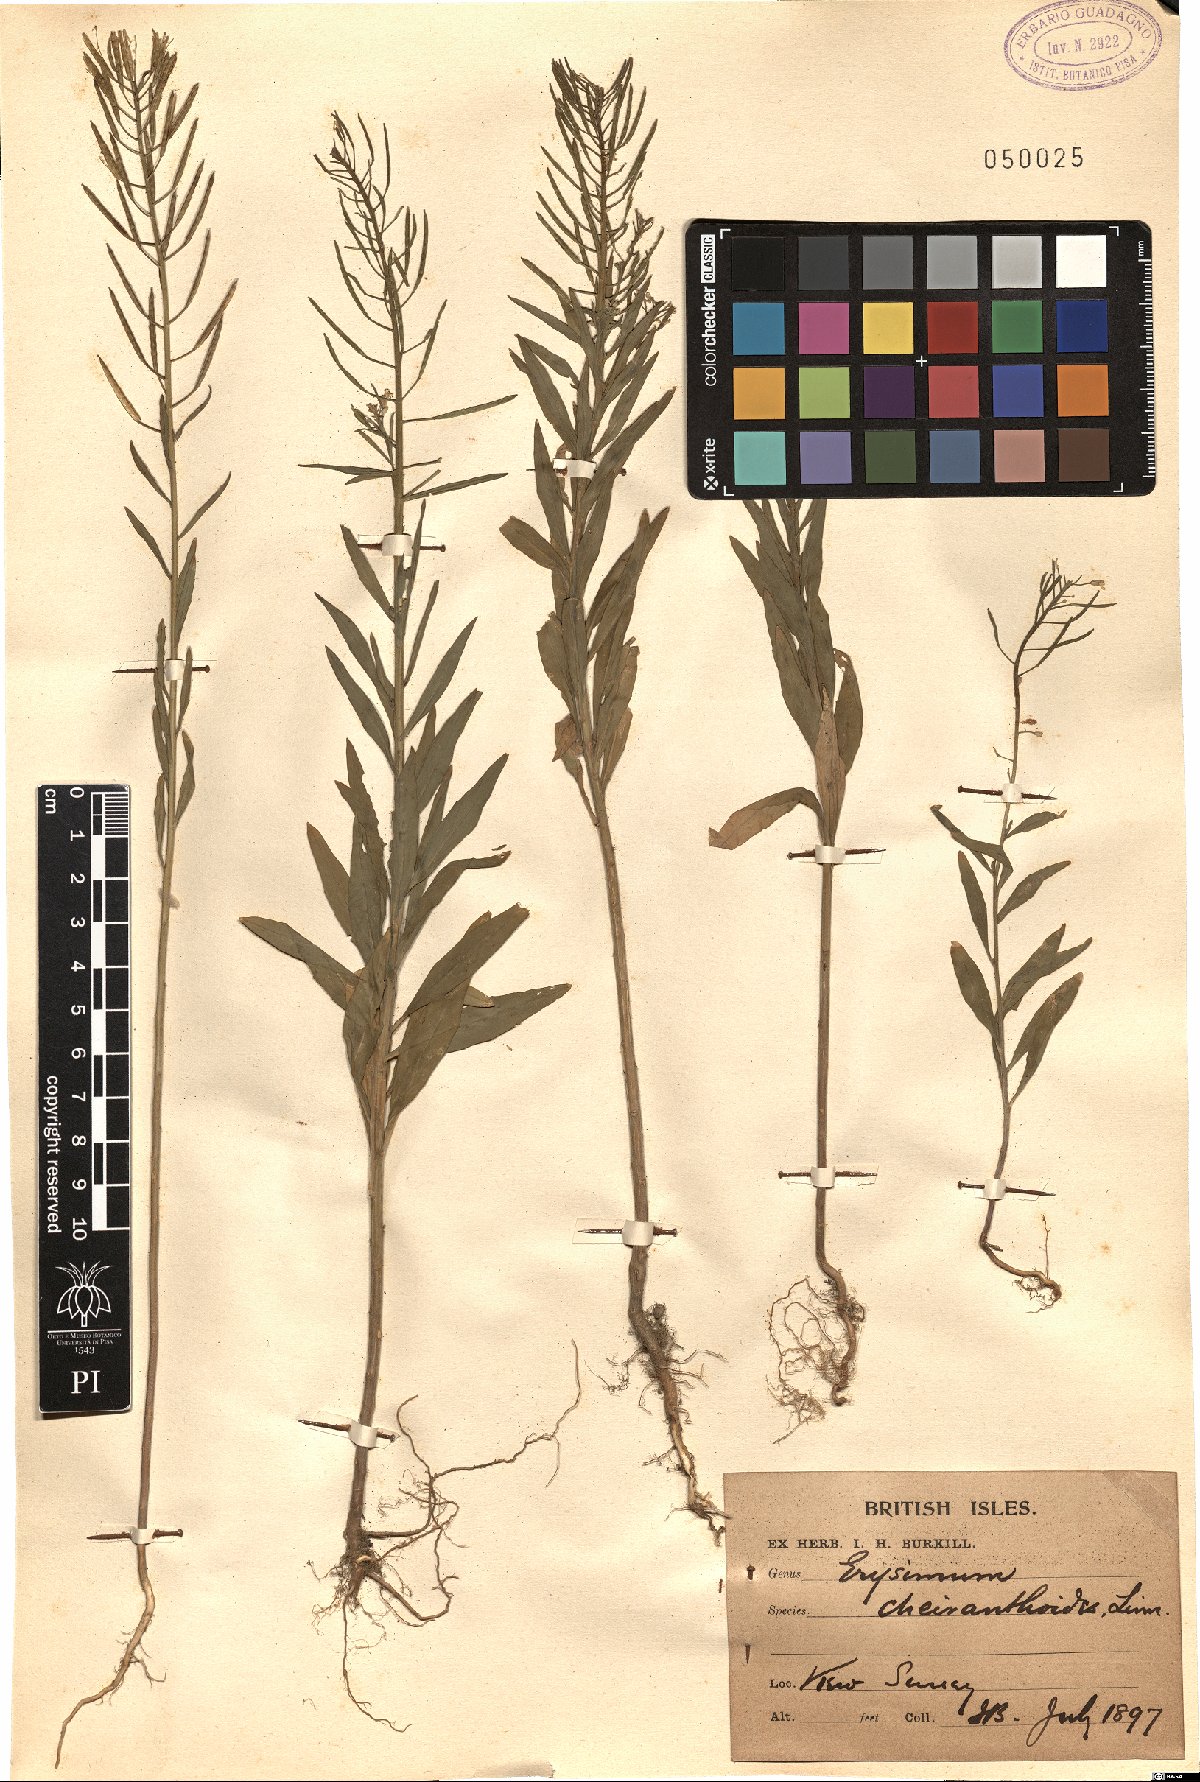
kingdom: Plantae
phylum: Tracheophyta
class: Magnoliopsida
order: Brassicales
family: Brassicaceae
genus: Erysimum
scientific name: Erysimum cheiranthoides
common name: Treacle mustard
